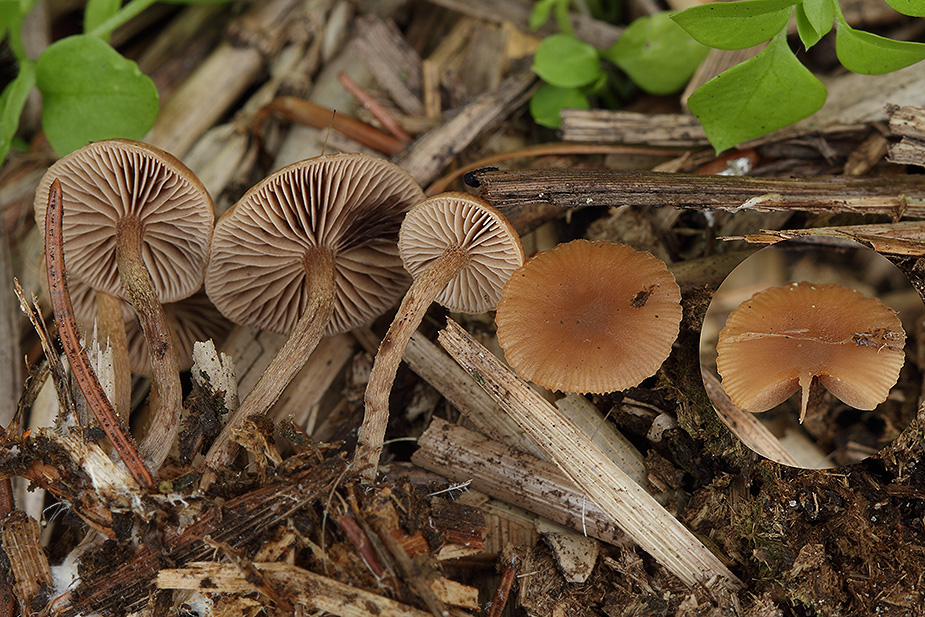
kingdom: Fungi
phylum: Basidiomycota
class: Agaricomycetes
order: Agaricales
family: Strophariaceae
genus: Deconica
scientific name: Deconica
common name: stråhat
